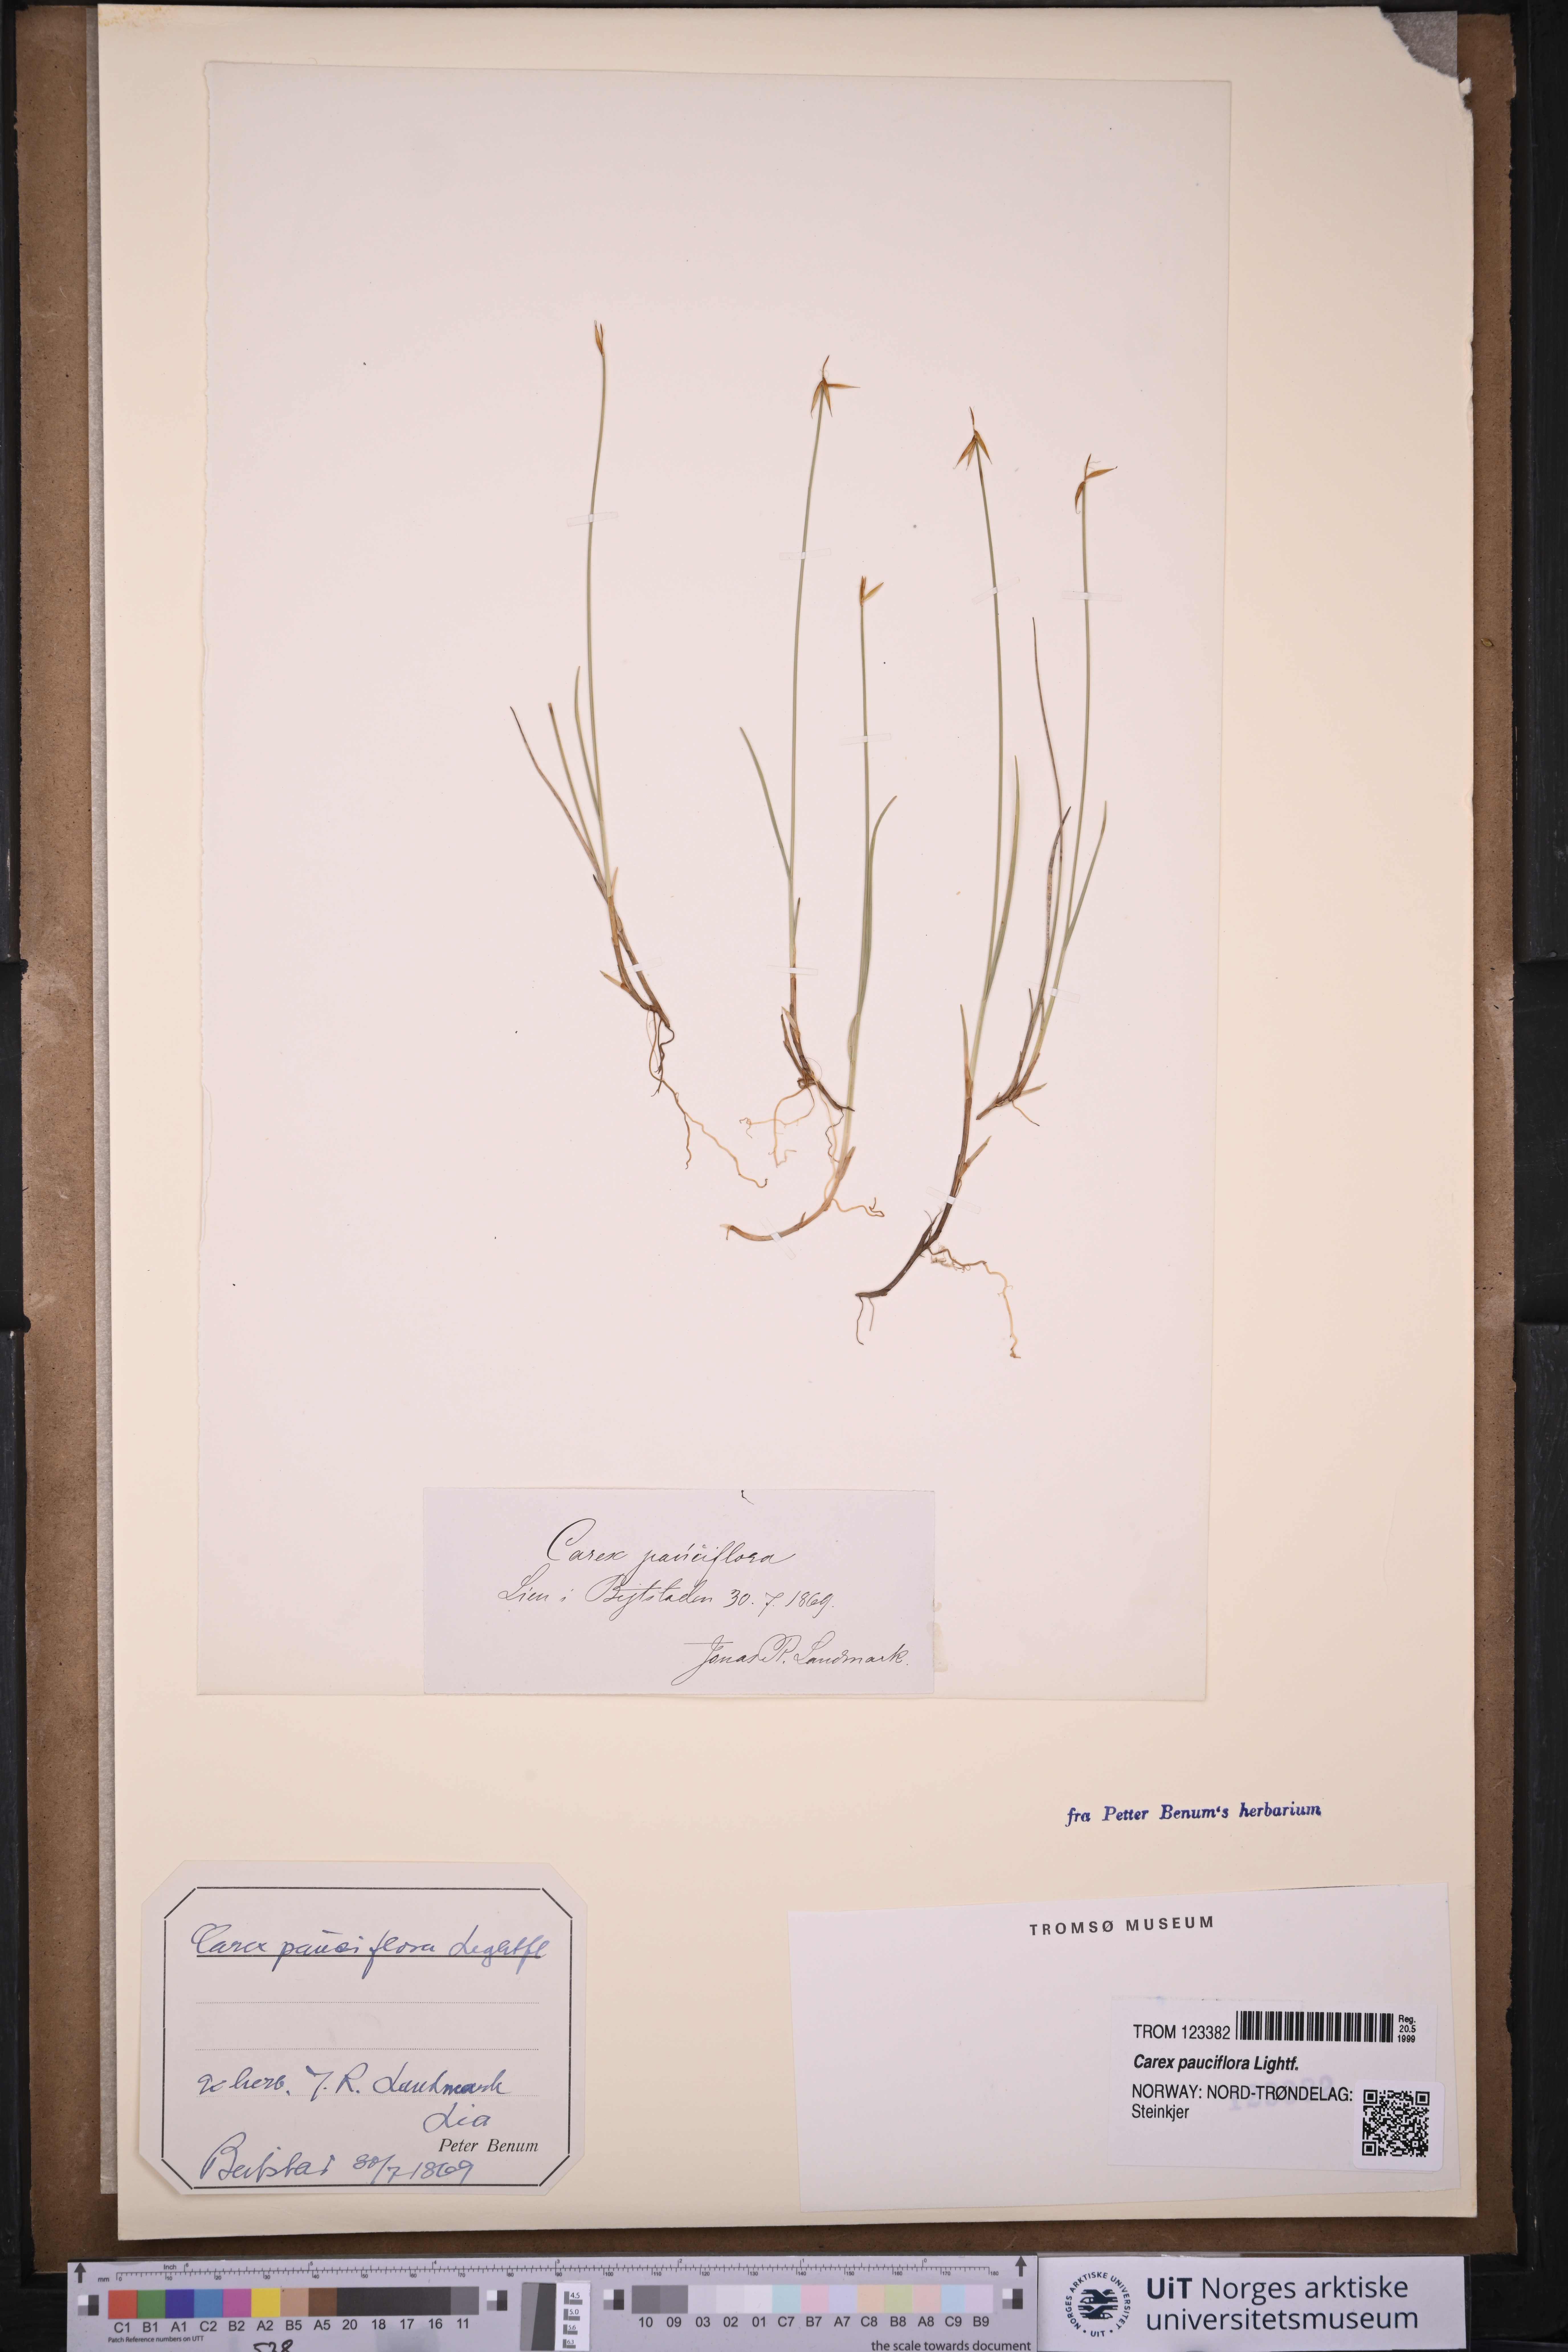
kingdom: Plantae
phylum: Tracheophyta
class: Liliopsida
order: Poales
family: Cyperaceae
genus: Carex
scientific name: Carex pauciflora
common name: Few-flowered sedge
